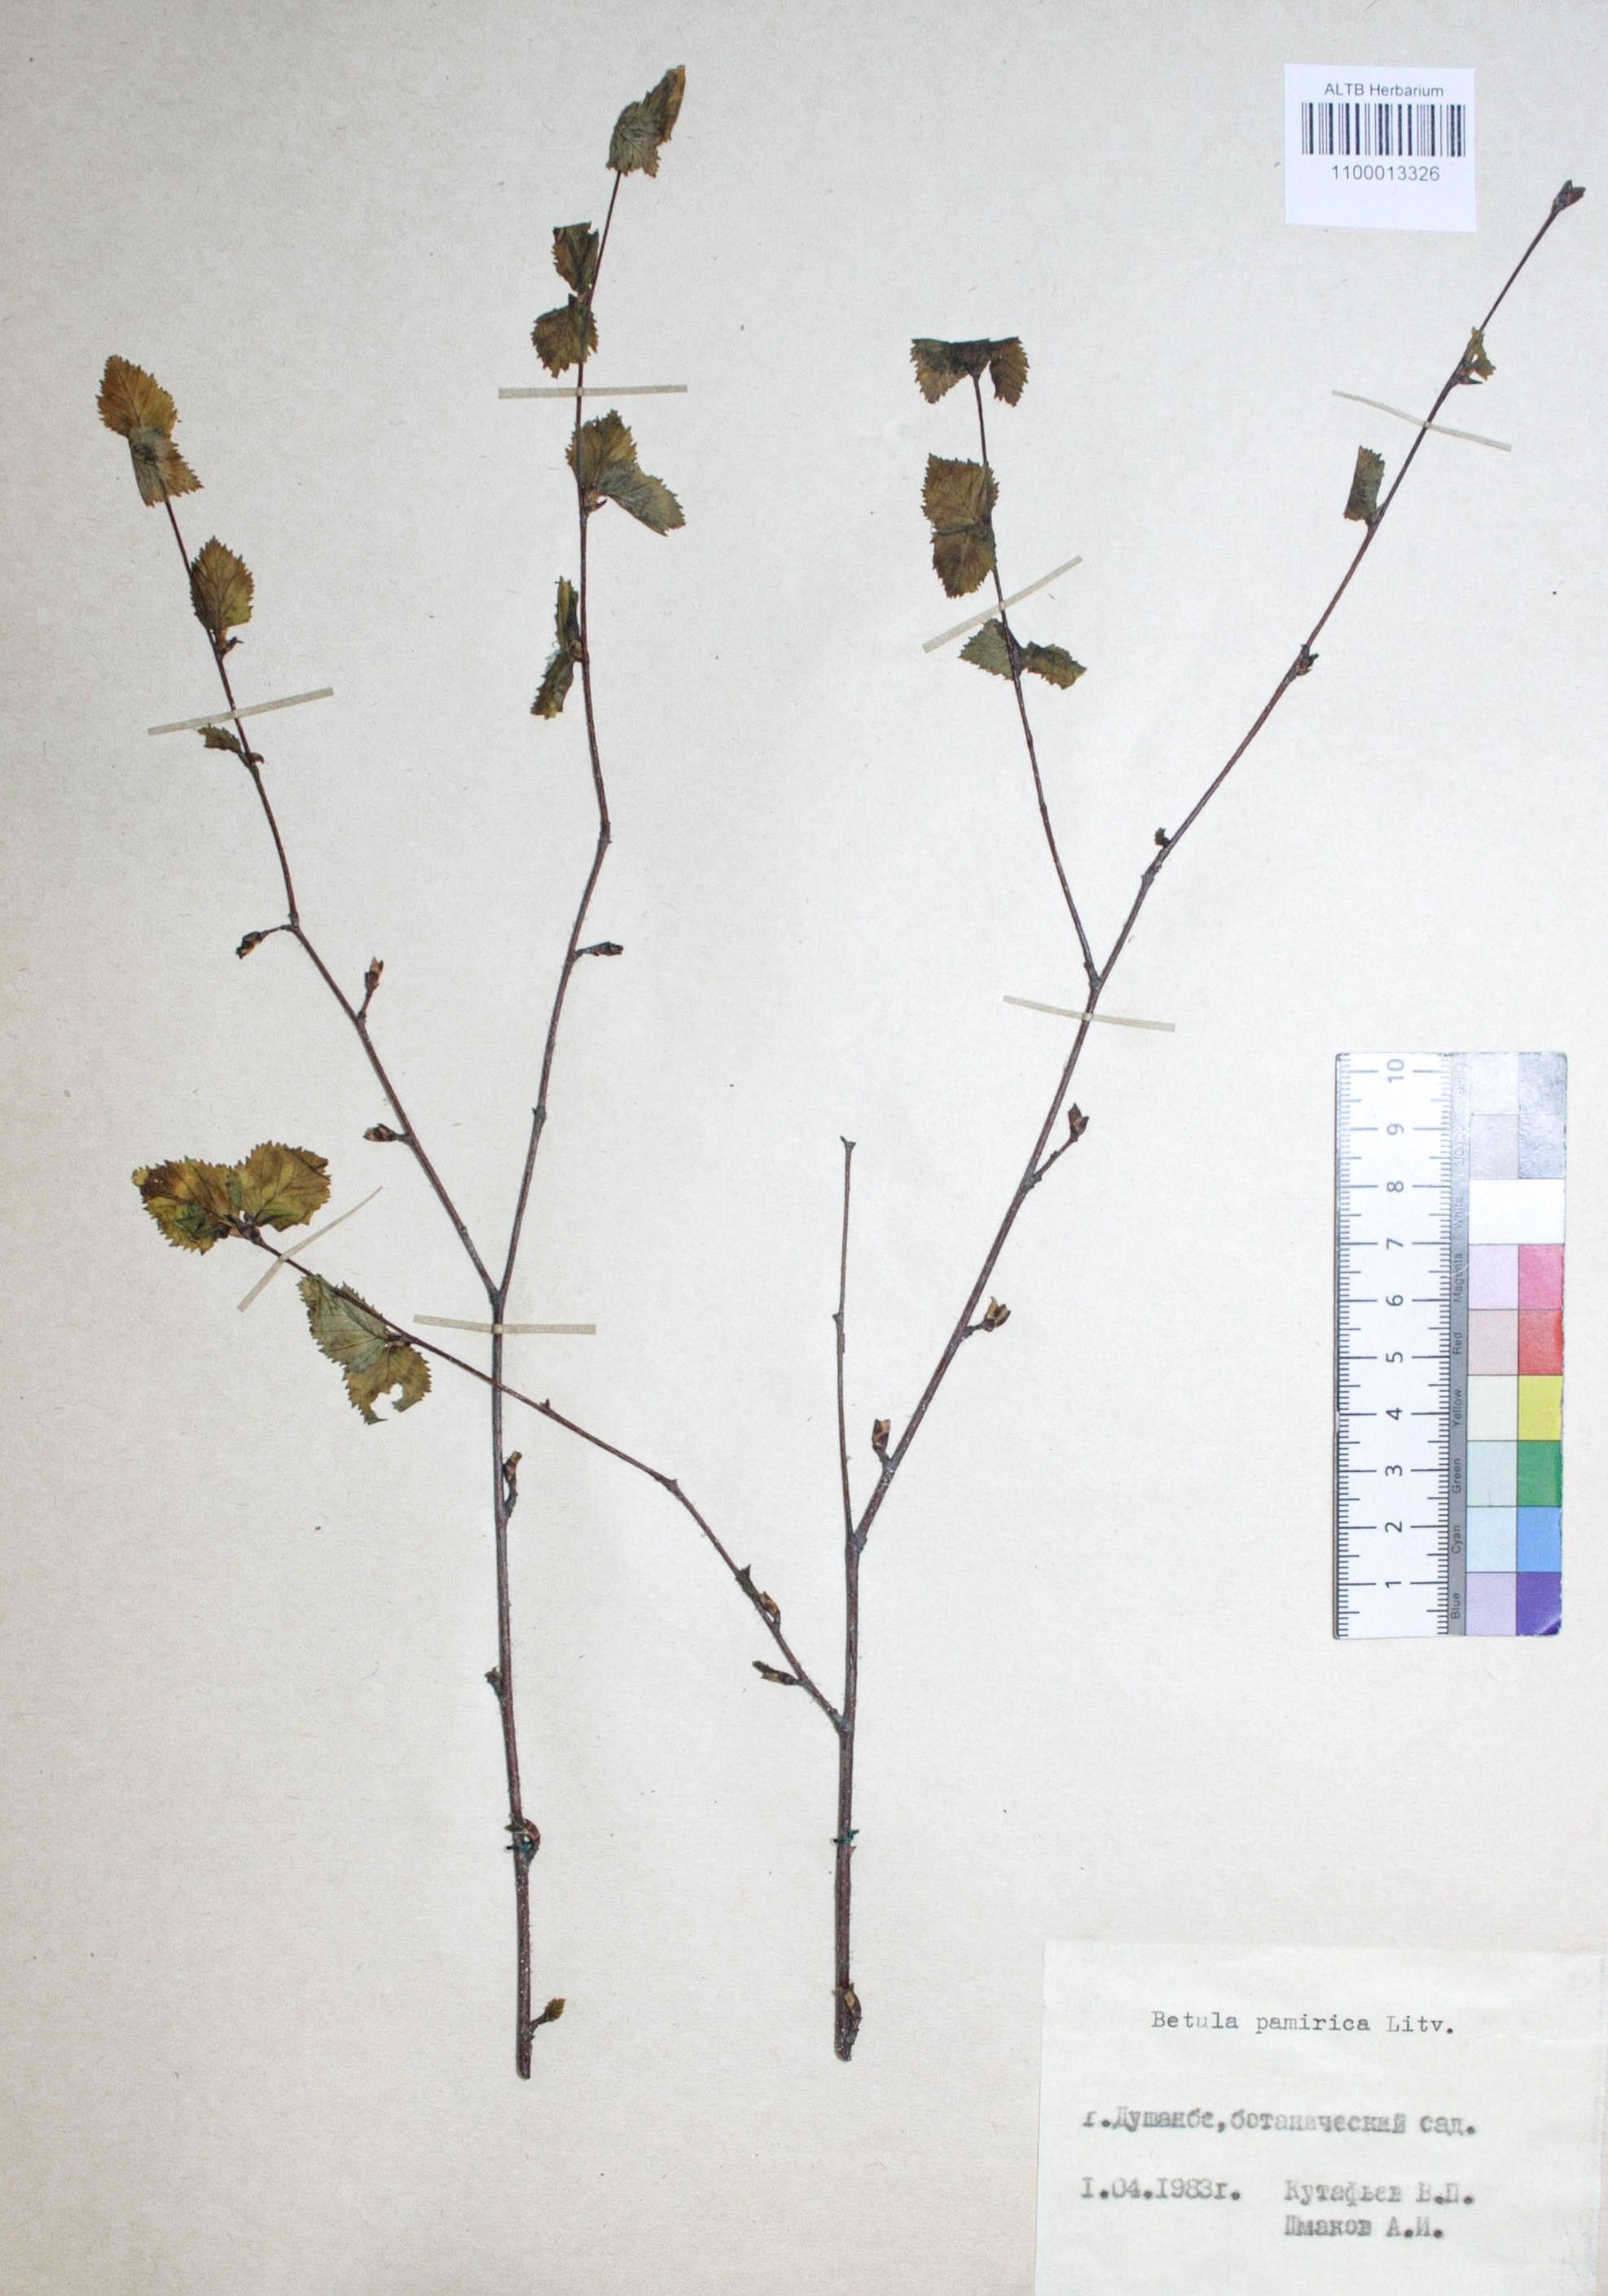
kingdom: Plantae
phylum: Tracheophyta
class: Magnoliopsida
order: Fagales
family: Betulaceae
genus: Betula
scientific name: Betula tianschanica
